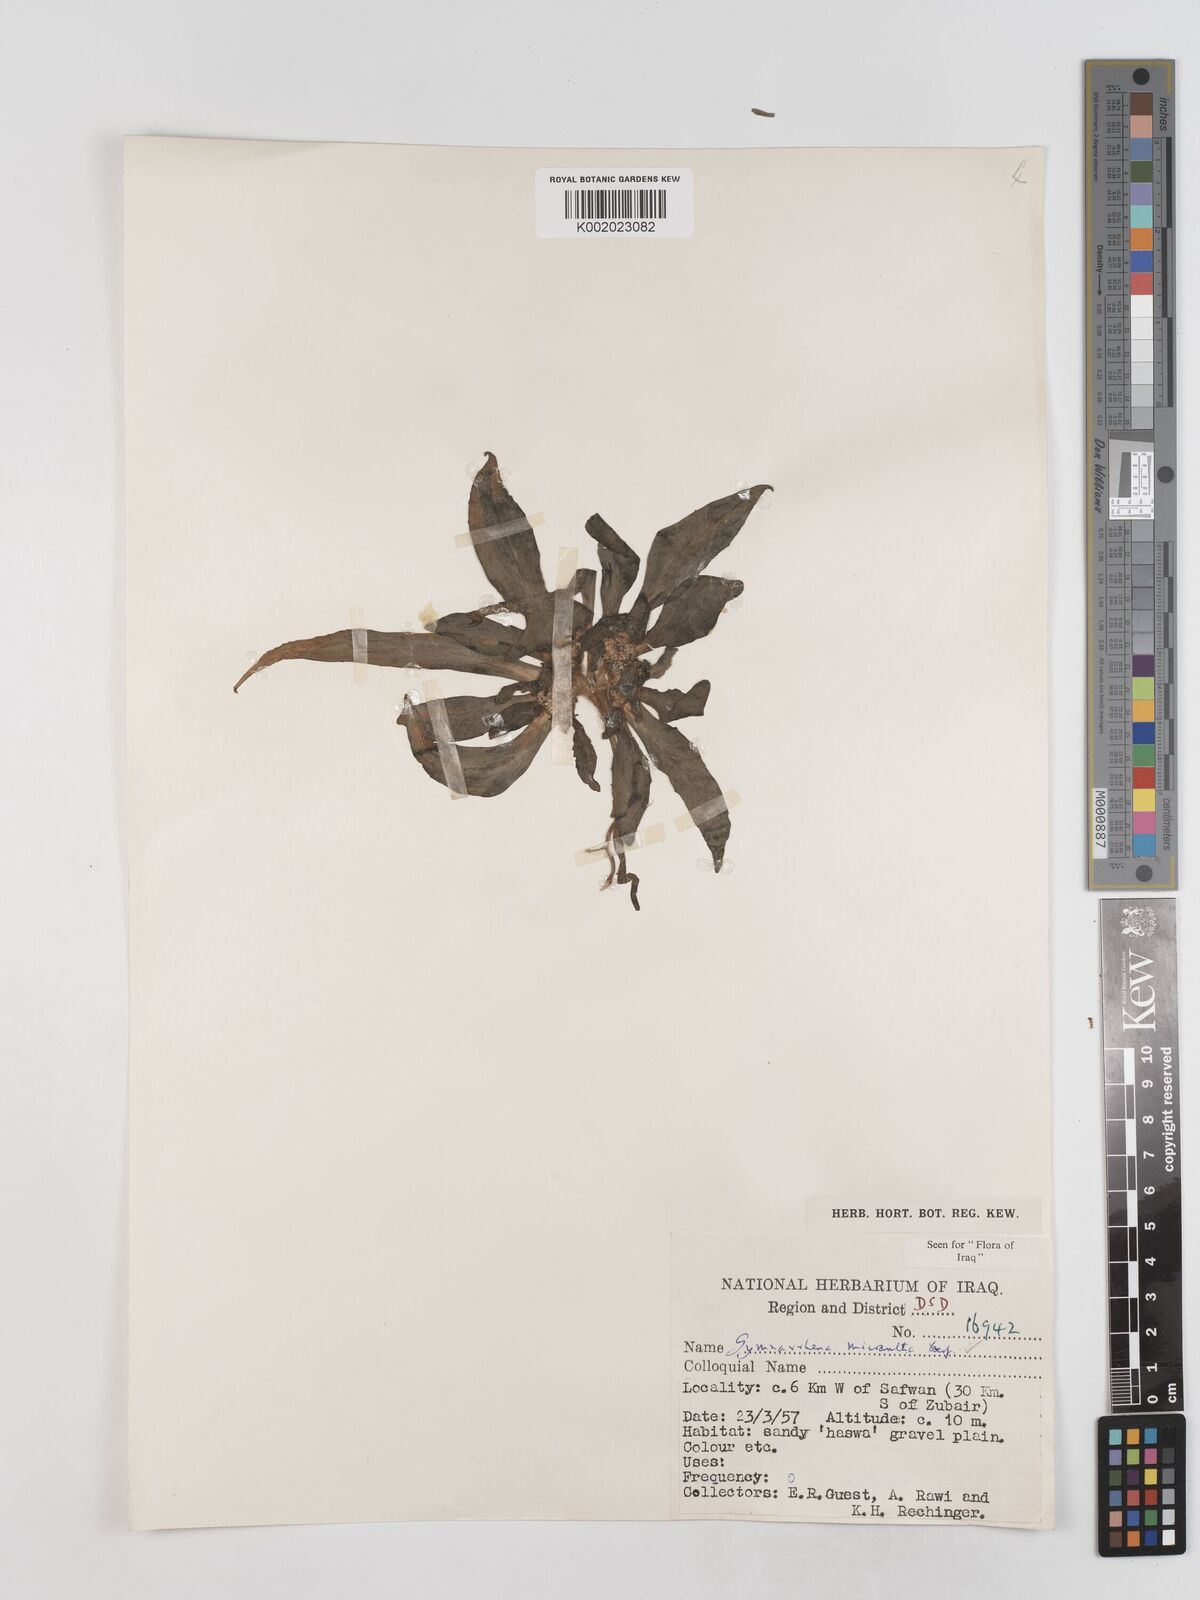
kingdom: Plantae
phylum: Tracheophyta
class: Magnoliopsida
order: Asterales
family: Asteraceae
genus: Gymnarrhena
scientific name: Gymnarrhena micrantha
